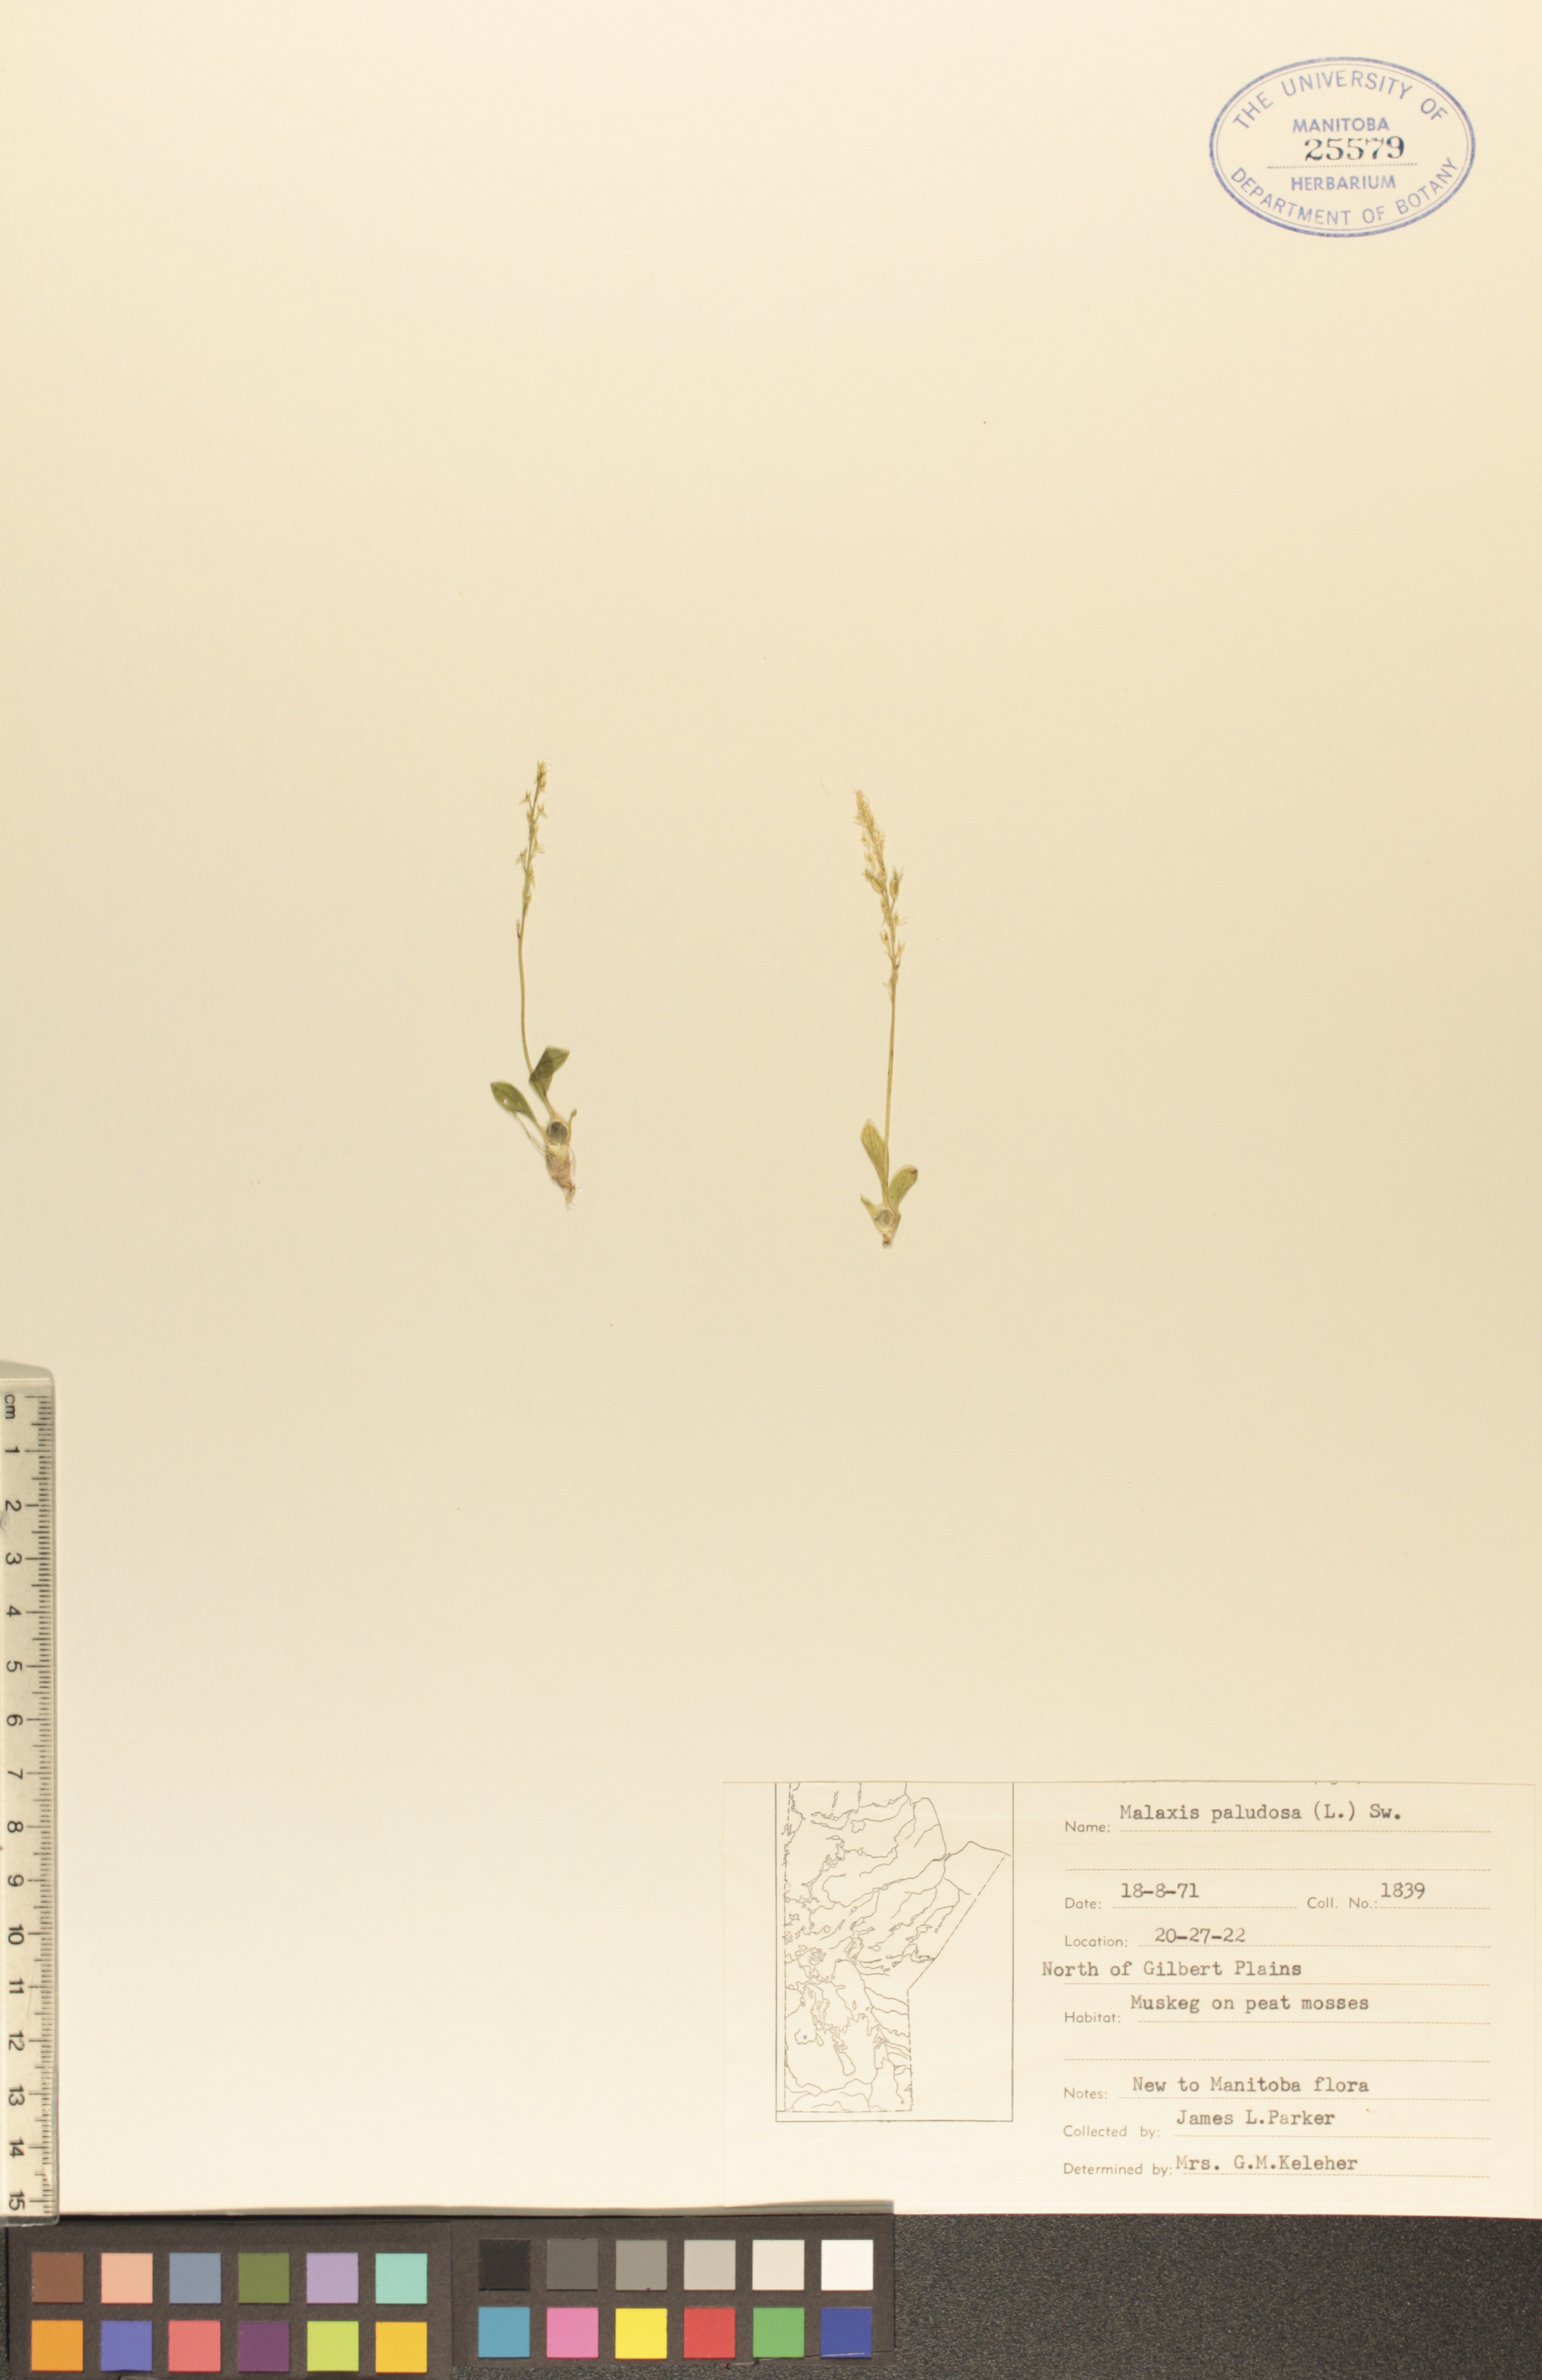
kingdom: Plantae
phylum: Tracheophyta
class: Liliopsida
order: Asparagales
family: Orchidaceae
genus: Hammarbya
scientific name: Hammarbya paludosa
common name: Bog orchid
